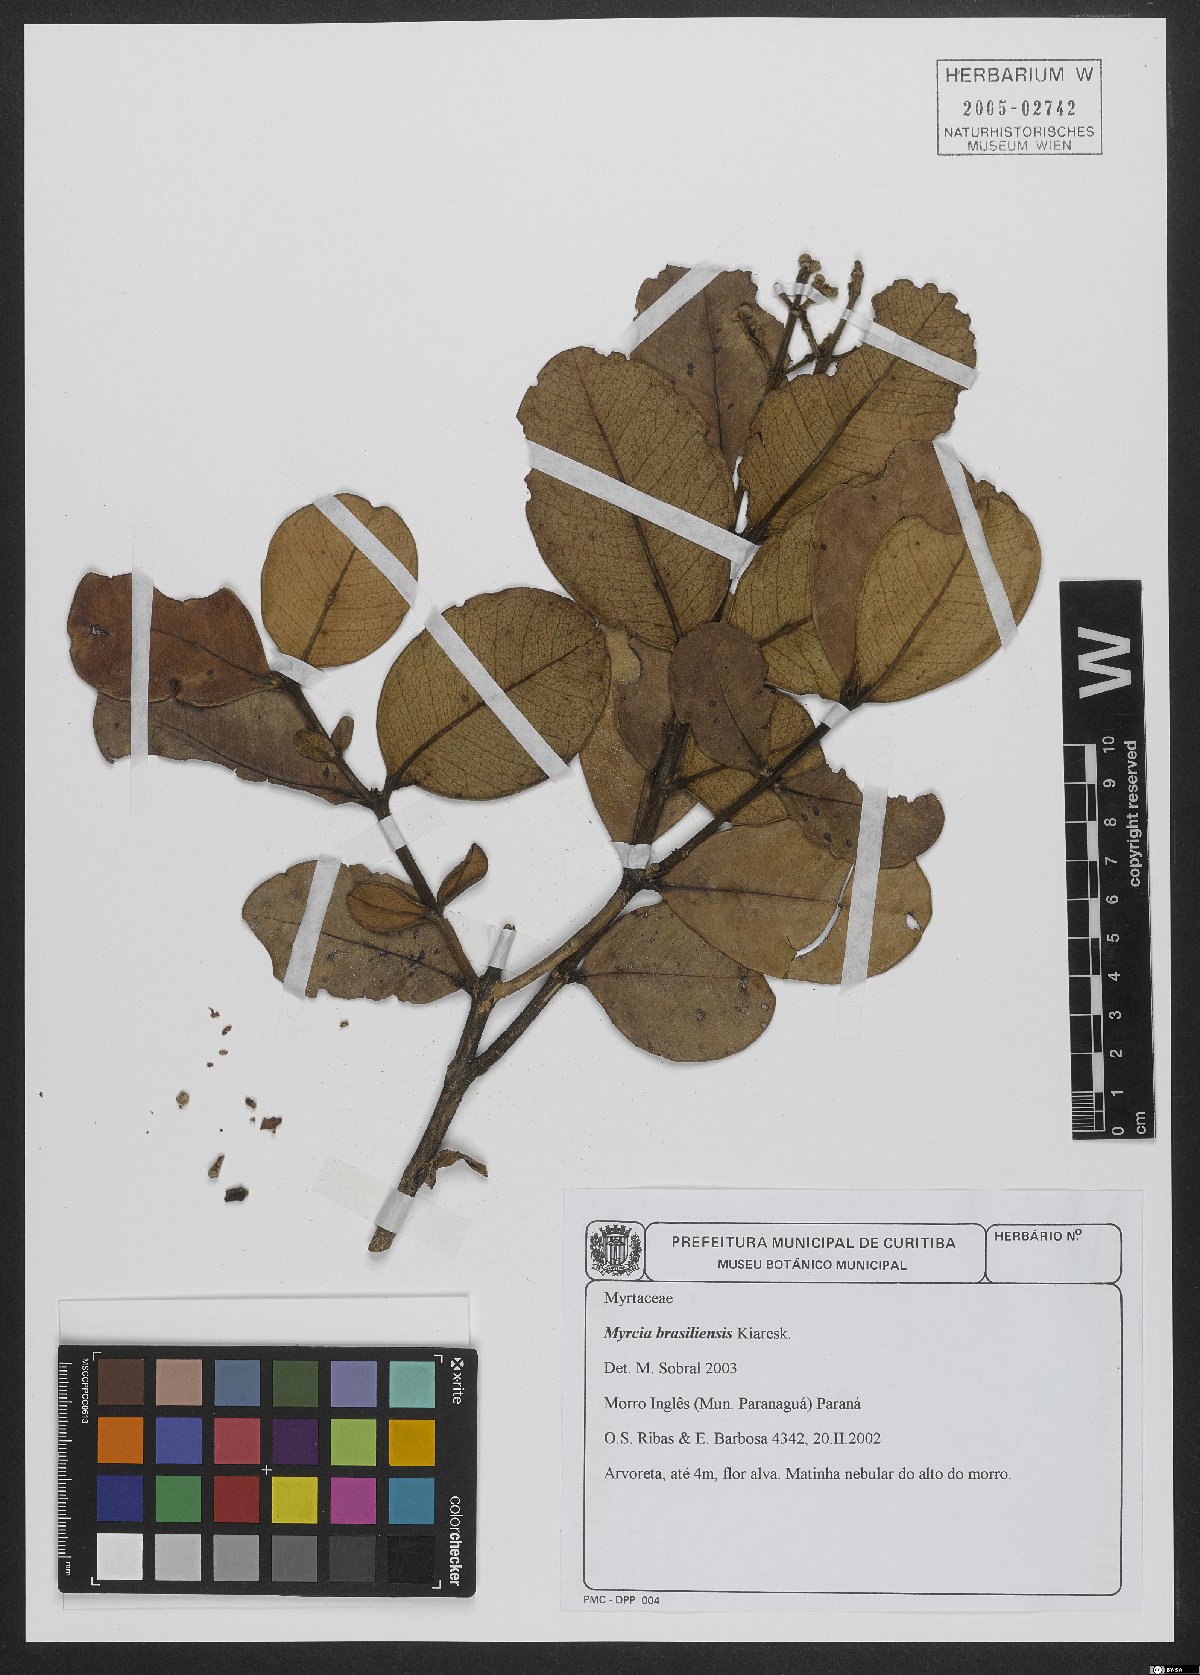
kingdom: Plantae
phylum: Tracheophyta
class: Magnoliopsida
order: Myrtales
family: Myrtaceae
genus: Myrcia
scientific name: Myrcia freyreissiana
